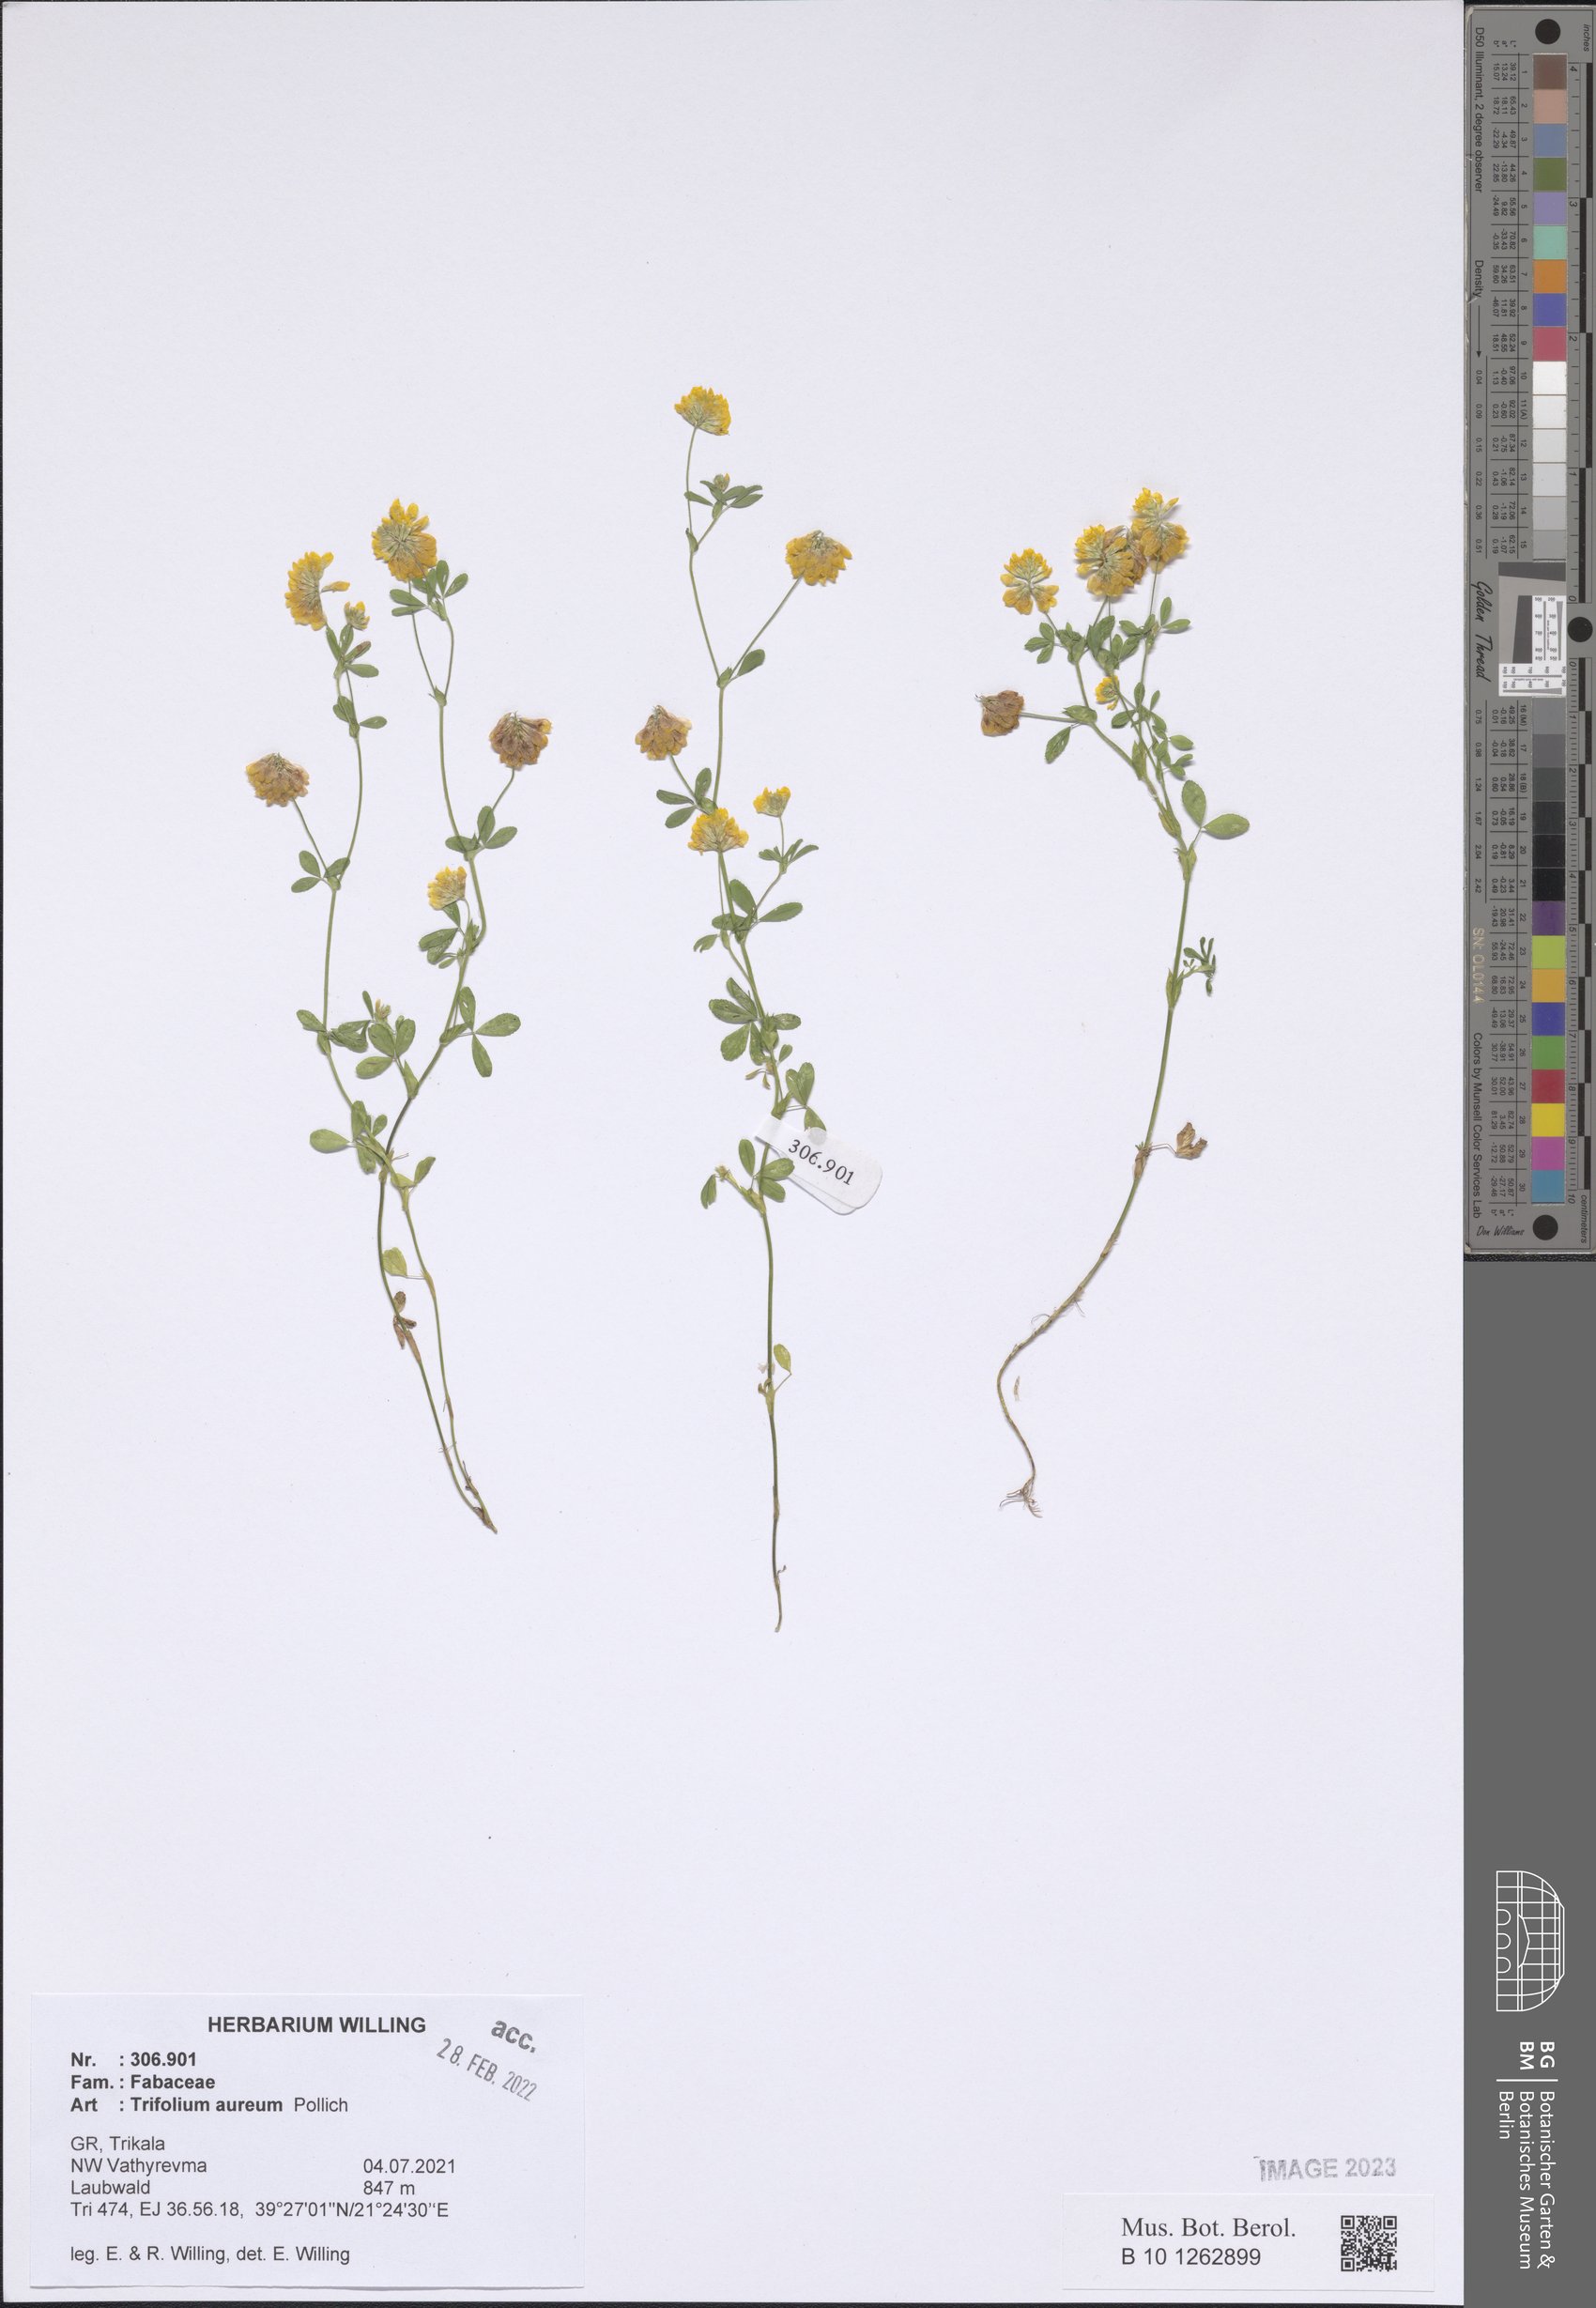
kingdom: Plantae
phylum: Tracheophyta
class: Magnoliopsida
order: Fabales
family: Fabaceae
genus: Trifolium
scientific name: Trifolium aureum
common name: Golden clover
